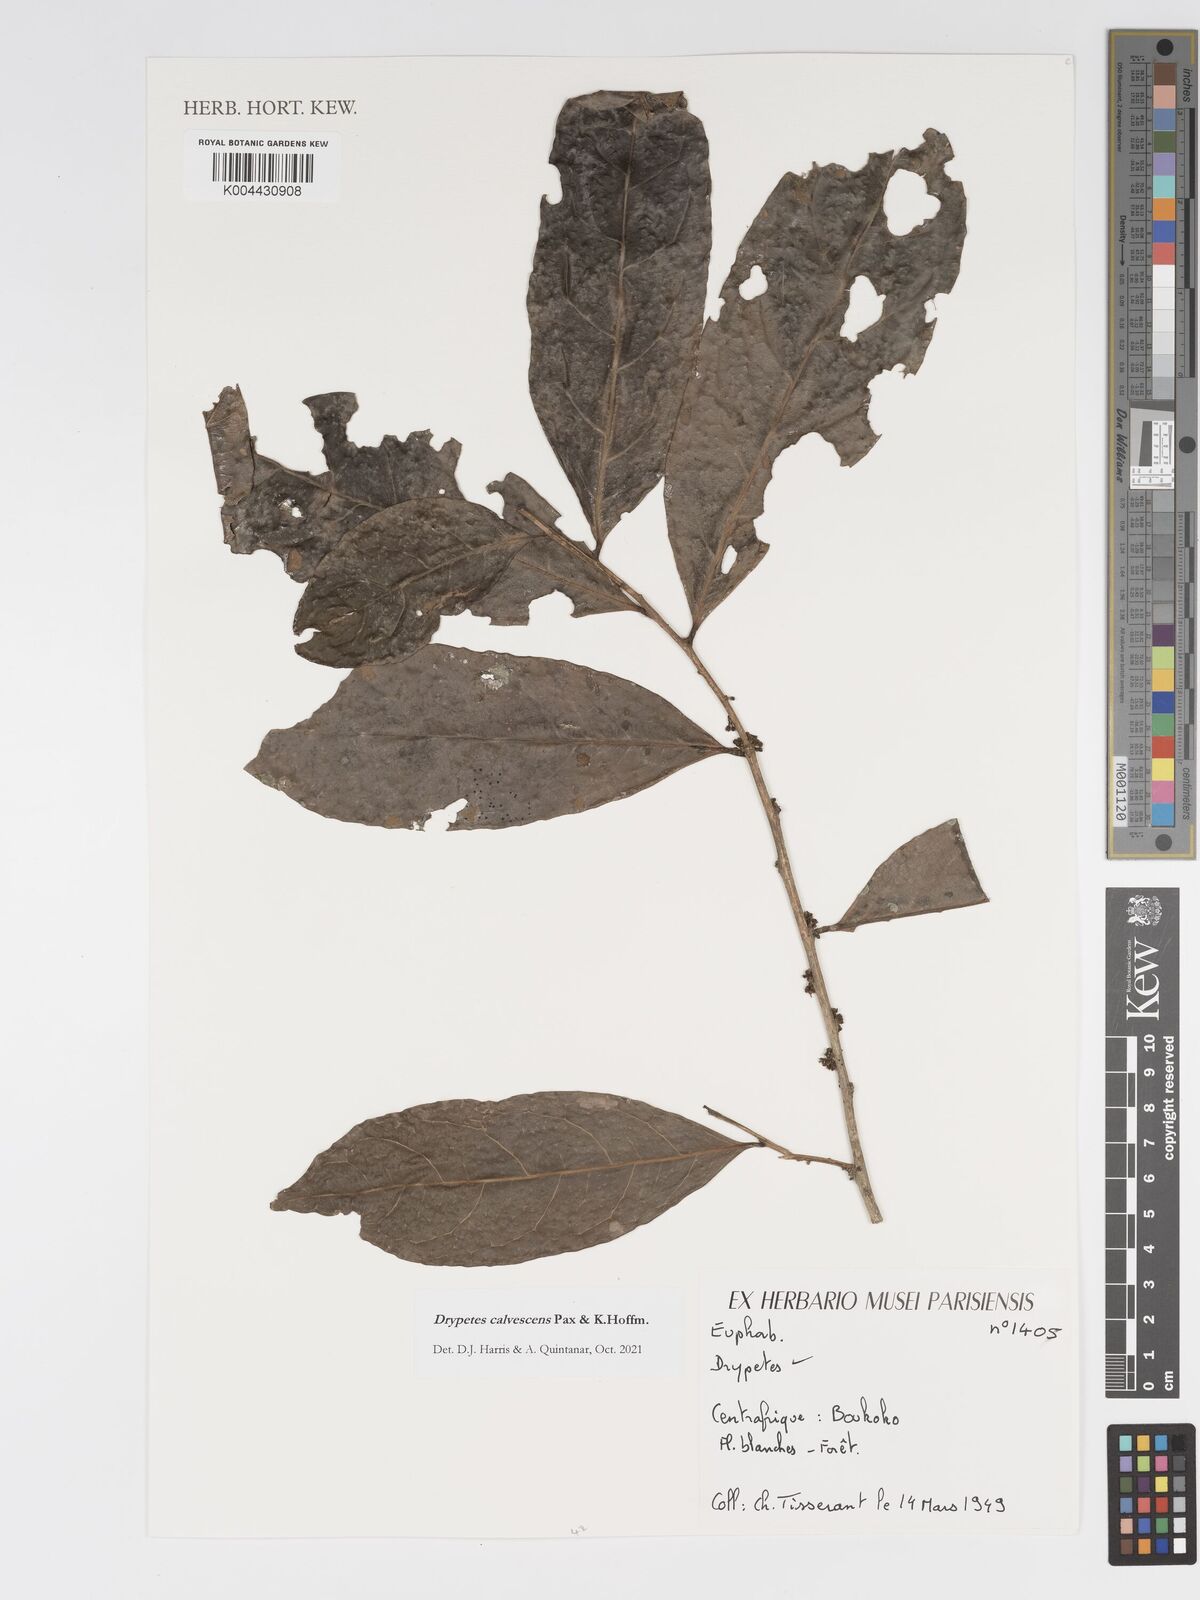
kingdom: Plantae
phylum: Tracheophyta
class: Magnoliopsida
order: Malpighiales
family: Putranjivaceae
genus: Drypetes
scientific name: Drypetes calvescens
